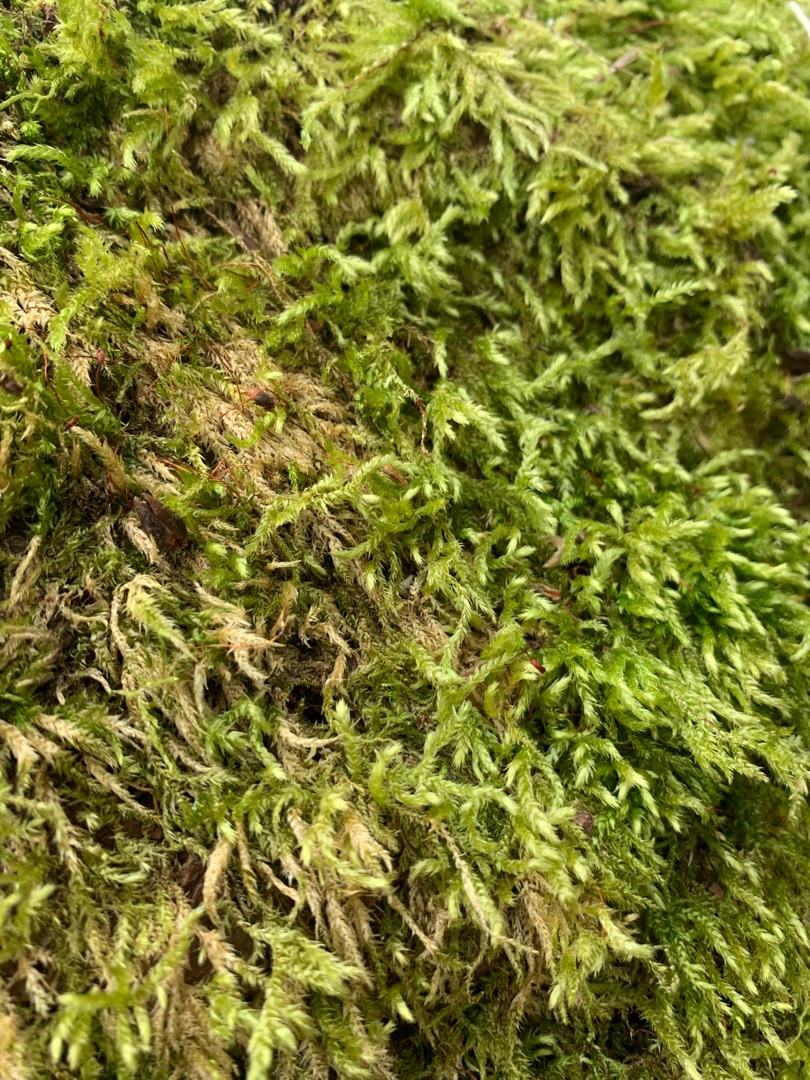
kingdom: Plantae
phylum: Bryophyta
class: Bryopsida
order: Hypnales
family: Brachytheciaceae
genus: Brachythecium
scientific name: Brachythecium rutabulum
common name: Almindelig kortkapsel
